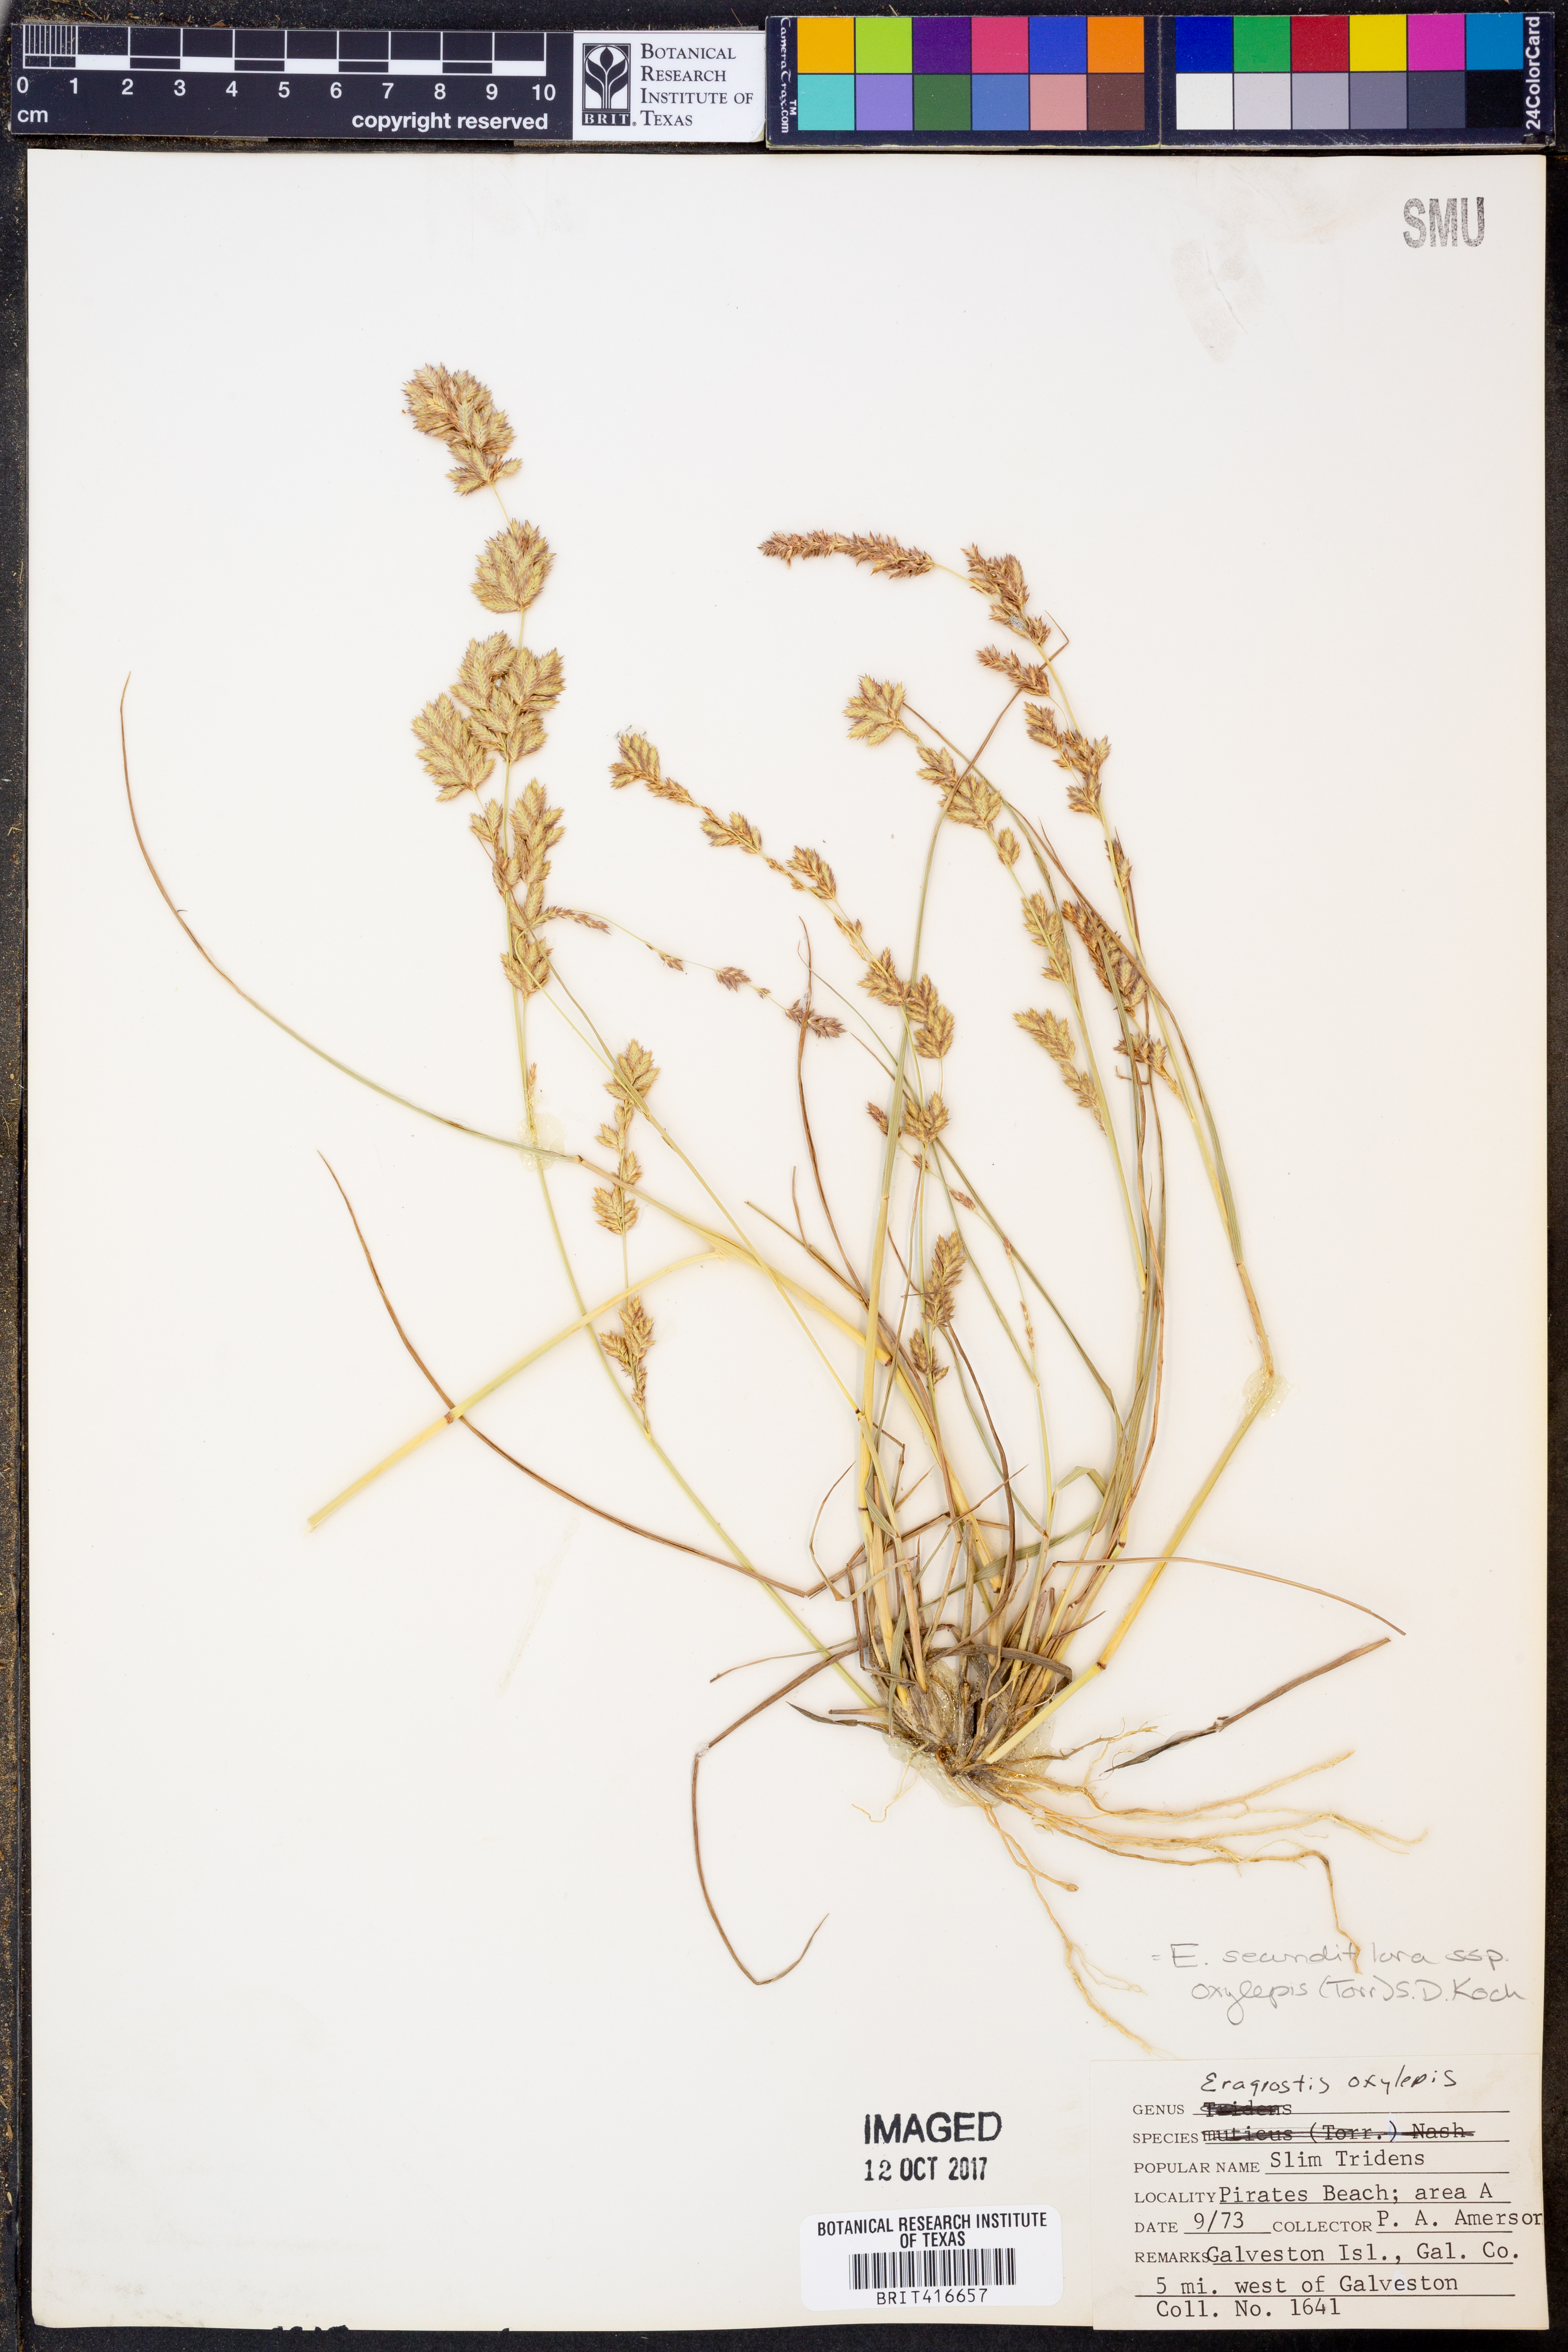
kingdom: Plantae
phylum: Tracheophyta
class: Liliopsida
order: Poales
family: Poaceae
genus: Eragrostis
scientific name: Eragrostis secundiflora
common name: Red love grass
